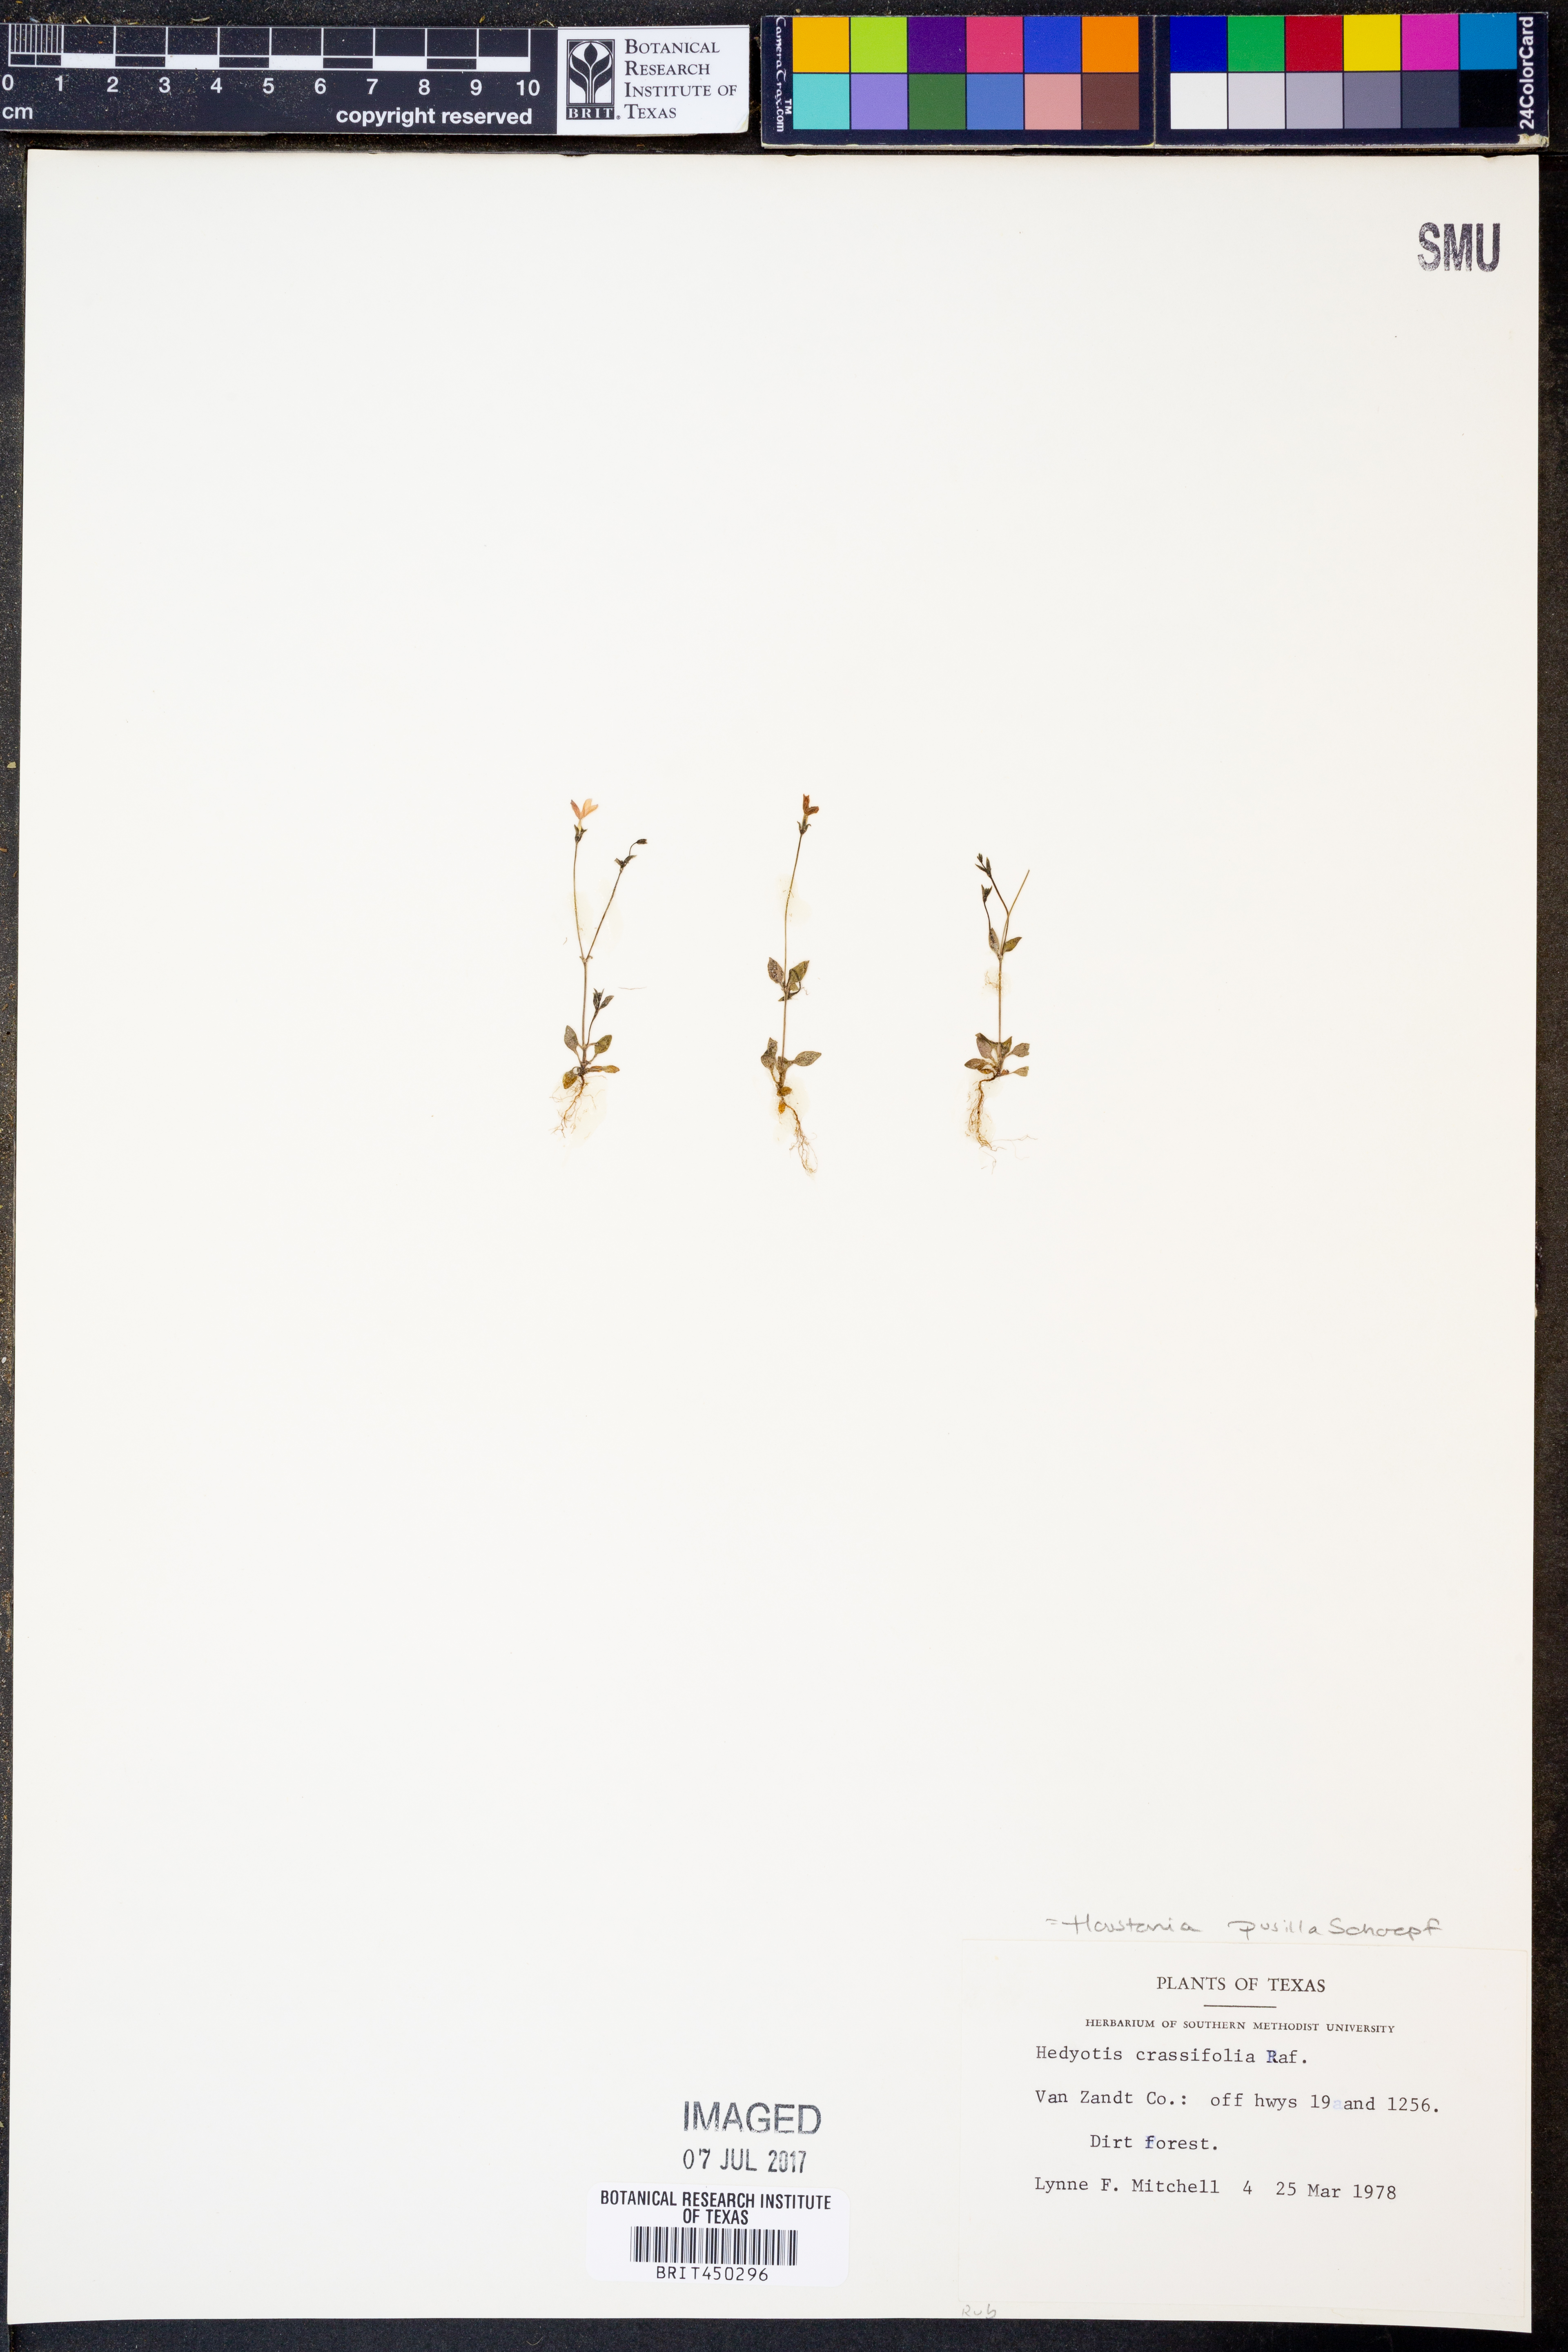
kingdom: Plantae
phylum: Tracheophyta
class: Magnoliopsida
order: Gentianales
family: Rubiaceae
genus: Houstonia
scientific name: Houstonia pusilla
